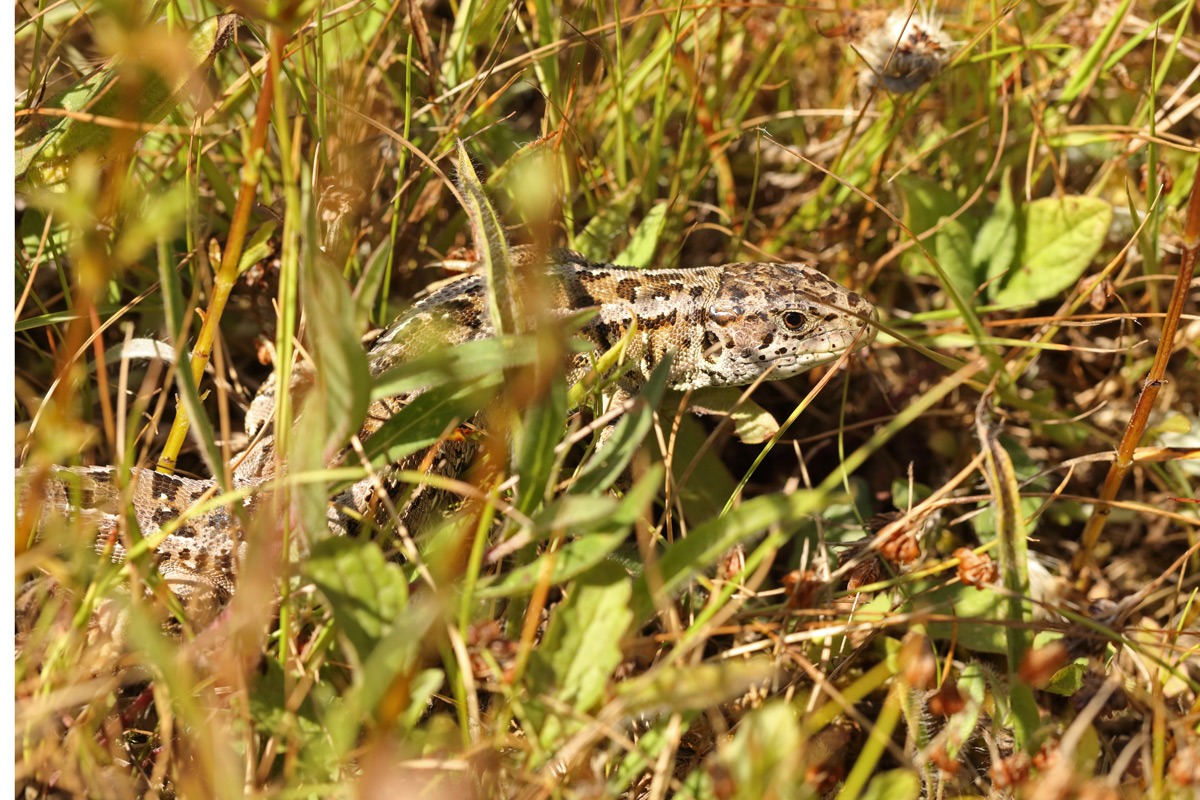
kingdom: Animalia
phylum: Chordata
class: Squamata
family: Lacertidae
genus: Lacerta
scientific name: Lacerta agilis
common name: Markfirben
